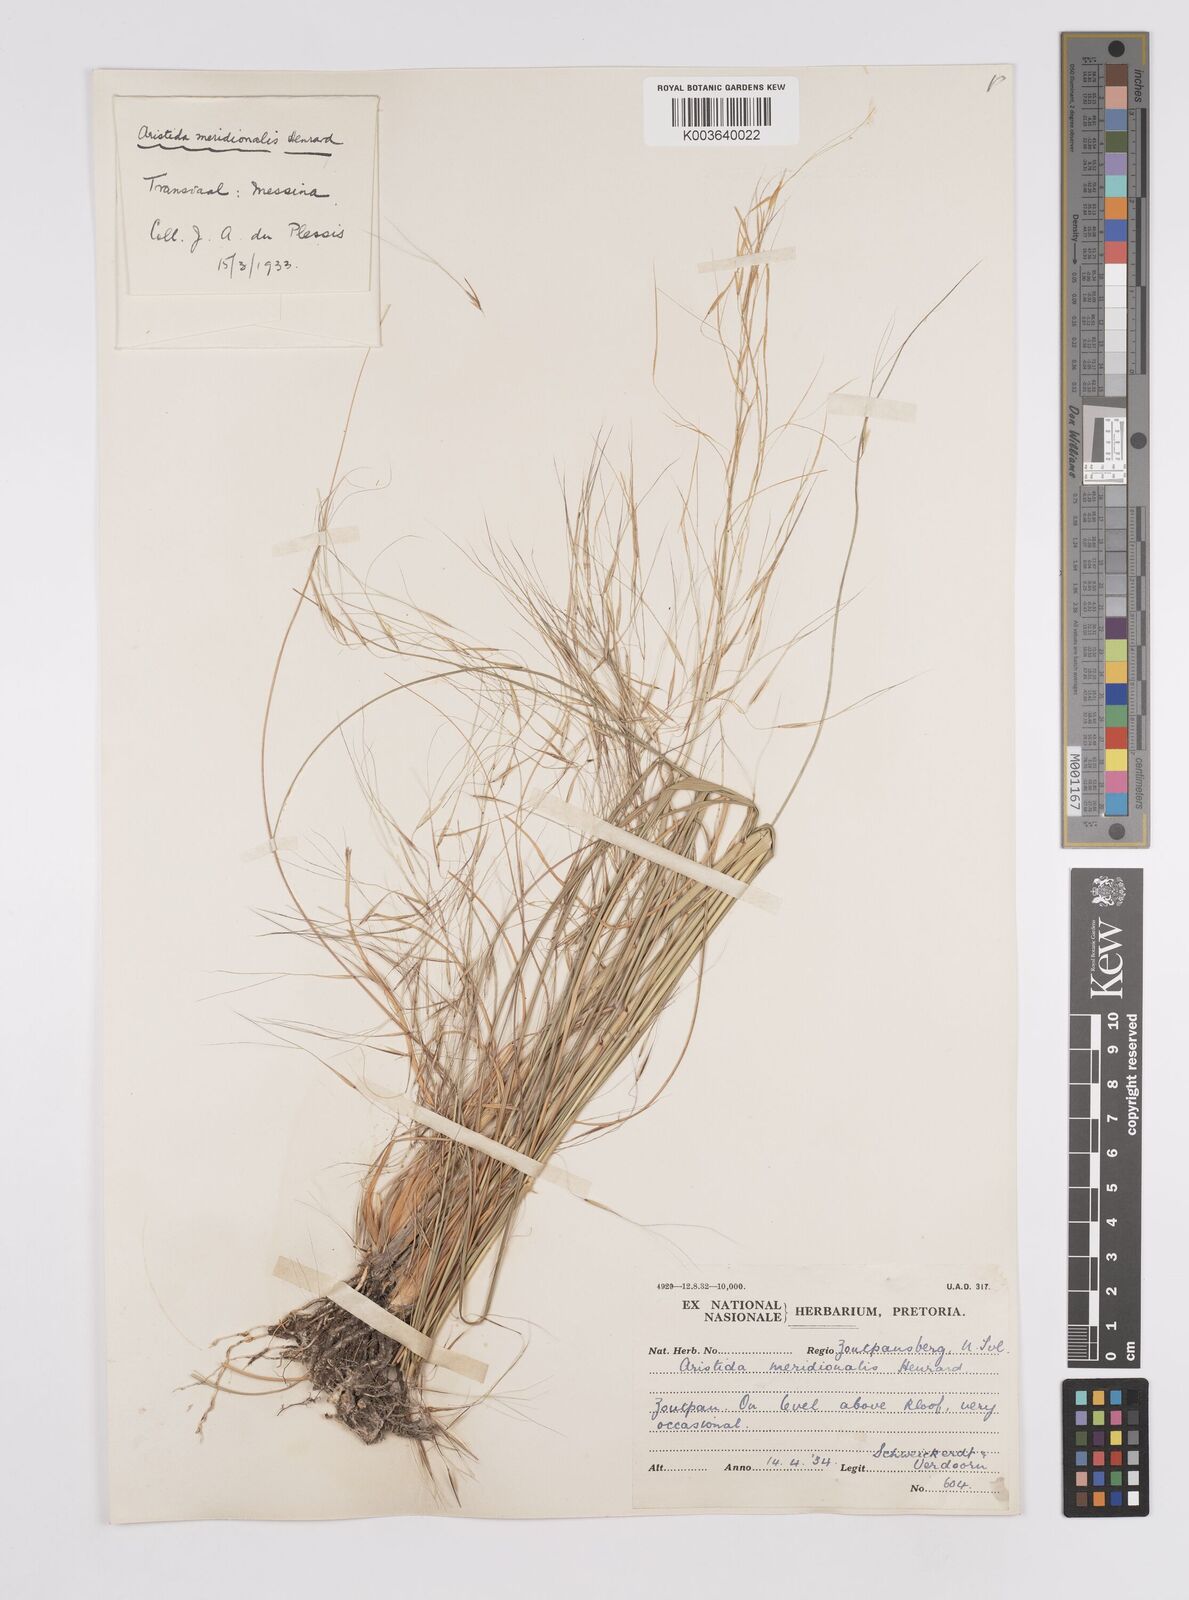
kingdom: Plantae
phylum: Tracheophyta
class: Liliopsida
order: Poales
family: Poaceae
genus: Aristida
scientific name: Aristida meridionalis
